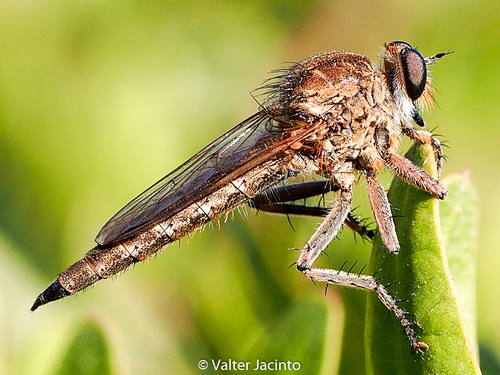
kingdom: Animalia
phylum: Arthropoda
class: Insecta
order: Diptera
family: Asilidae
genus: Machimus
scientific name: Machimus pilipes
